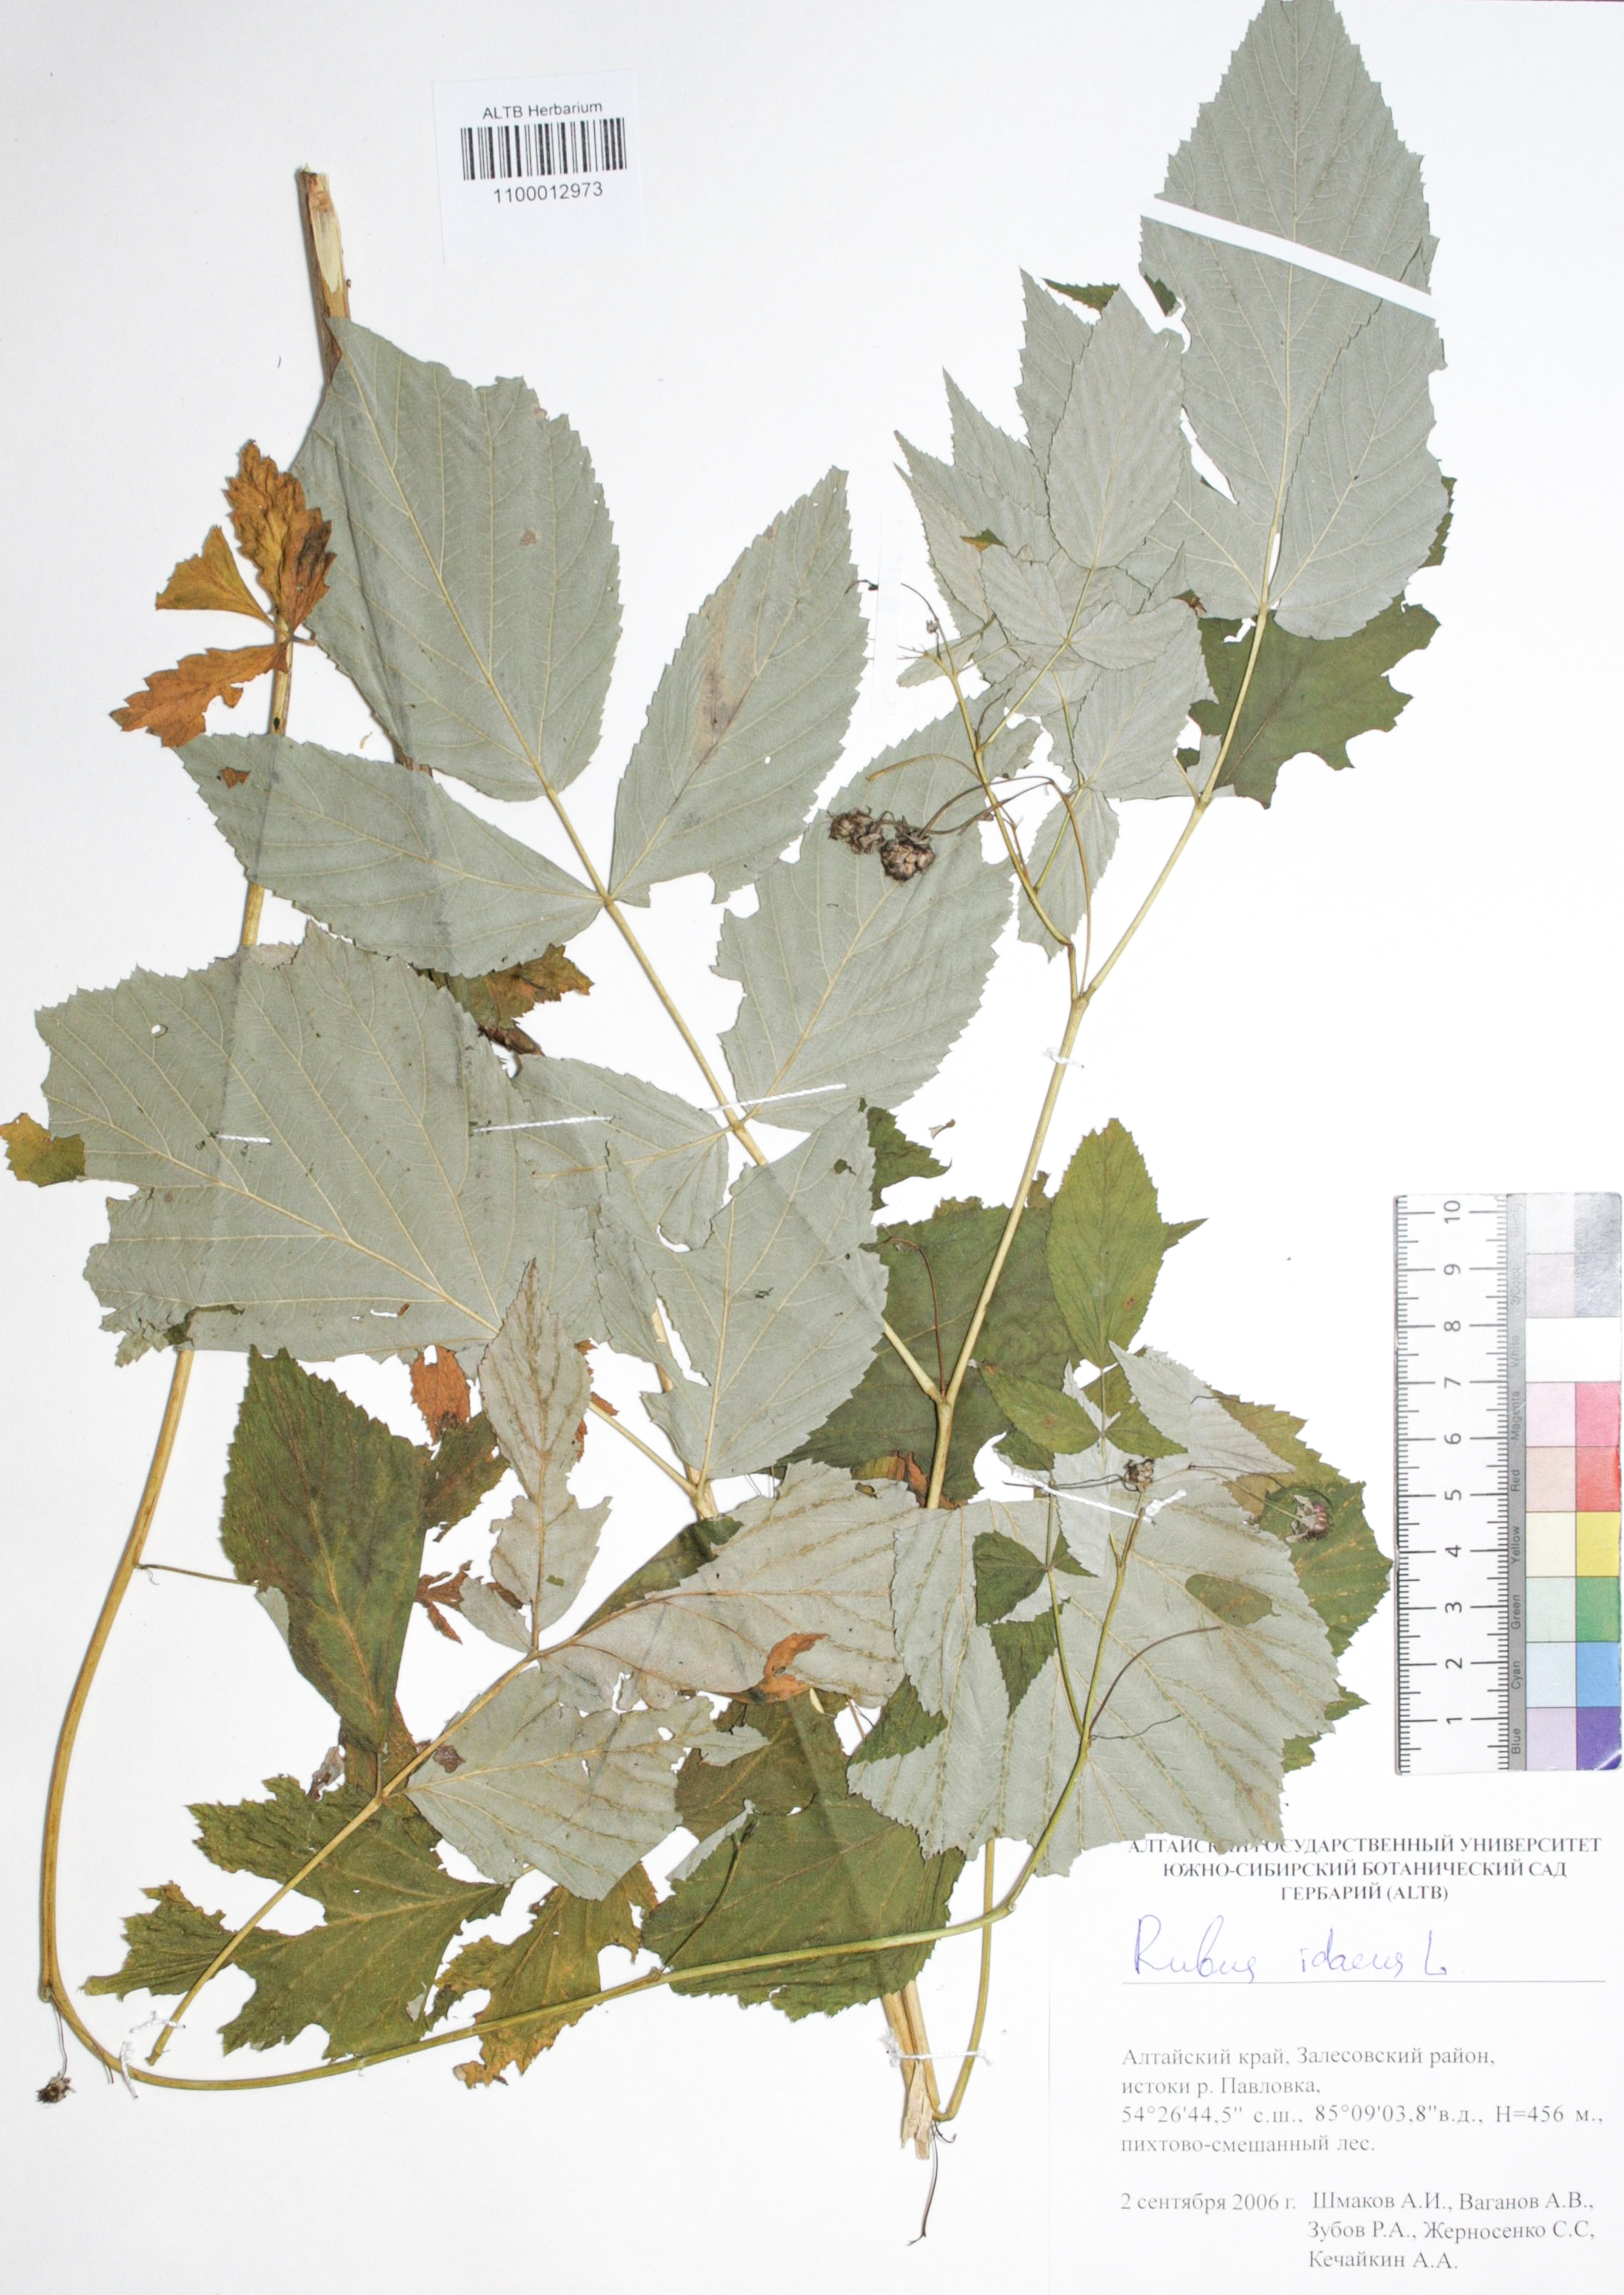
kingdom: Plantae
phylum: Tracheophyta
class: Magnoliopsida
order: Rosales
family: Rosaceae
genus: Rubus
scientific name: Rubus idaeus
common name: Raspberry
